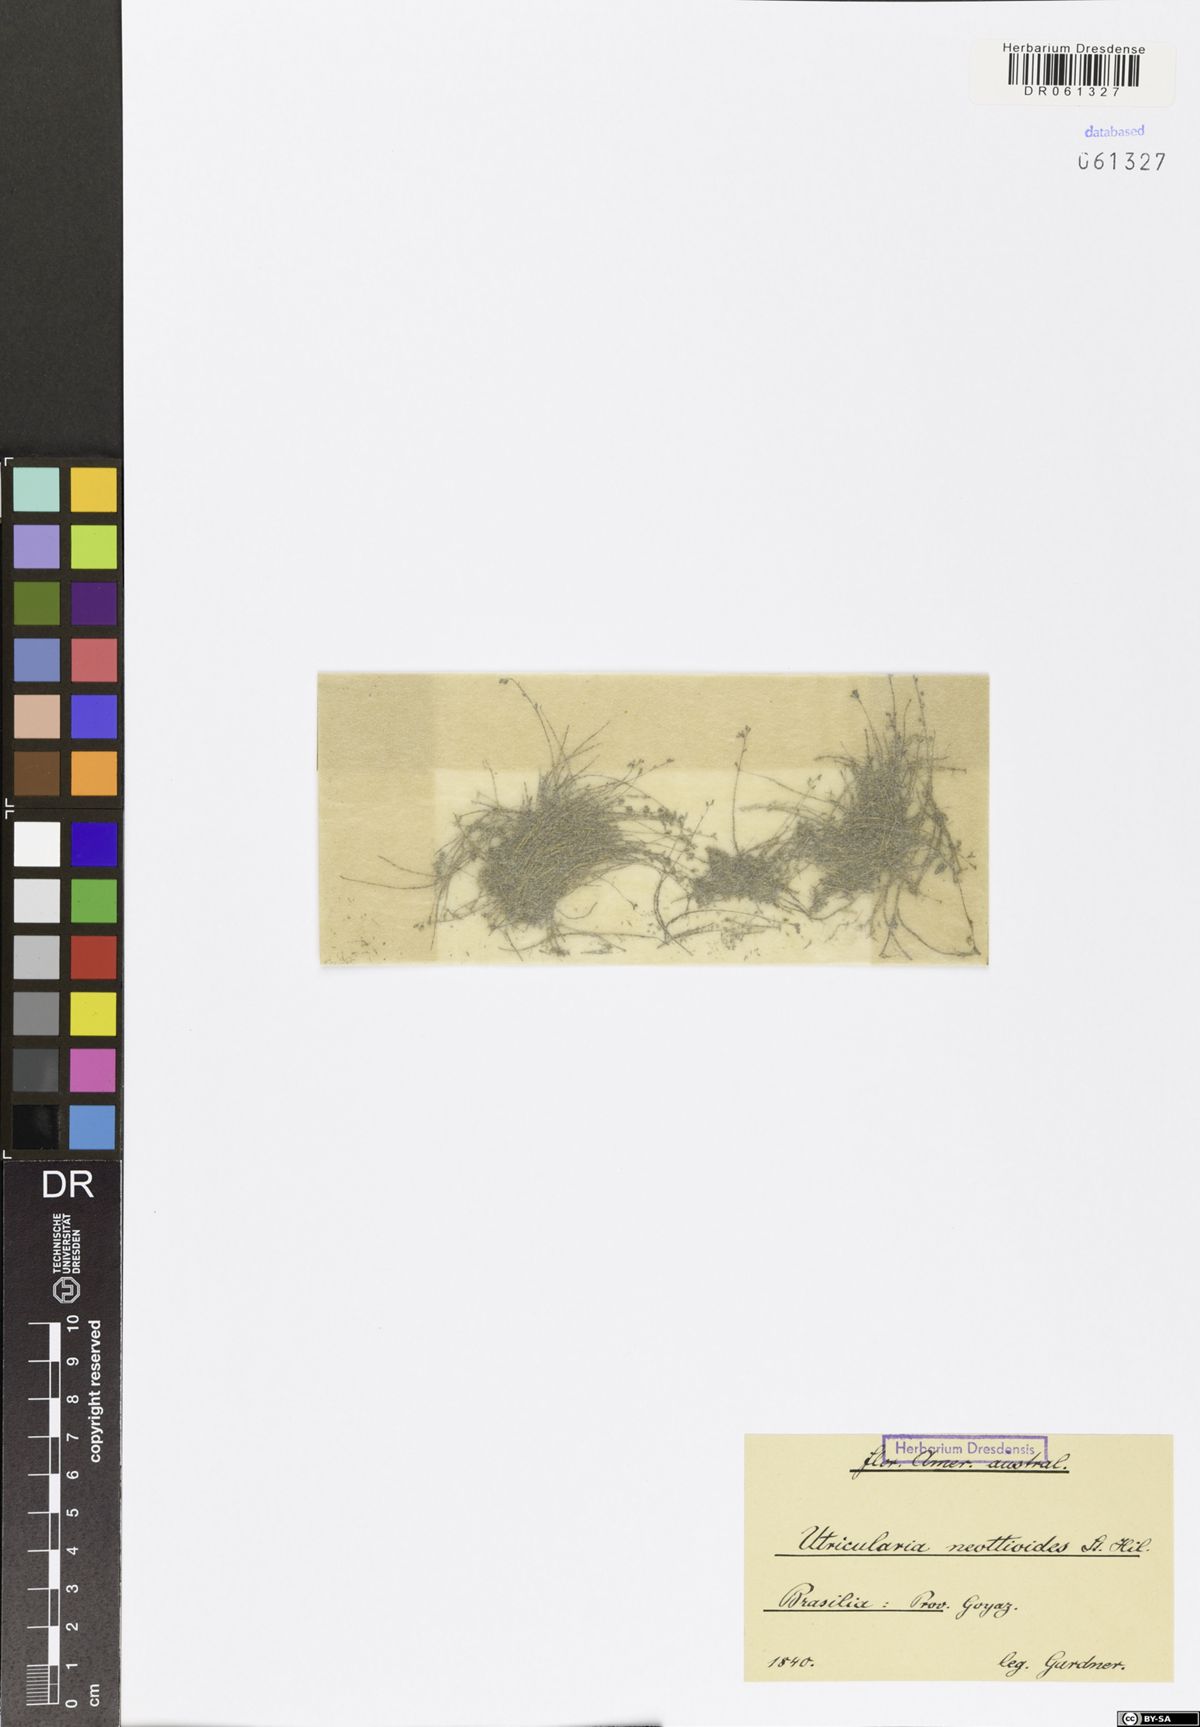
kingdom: Plantae
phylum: Tracheophyta
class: Magnoliopsida
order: Lamiales
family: Lentibulariaceae
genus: Utricularia
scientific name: Utricularia neottioides
